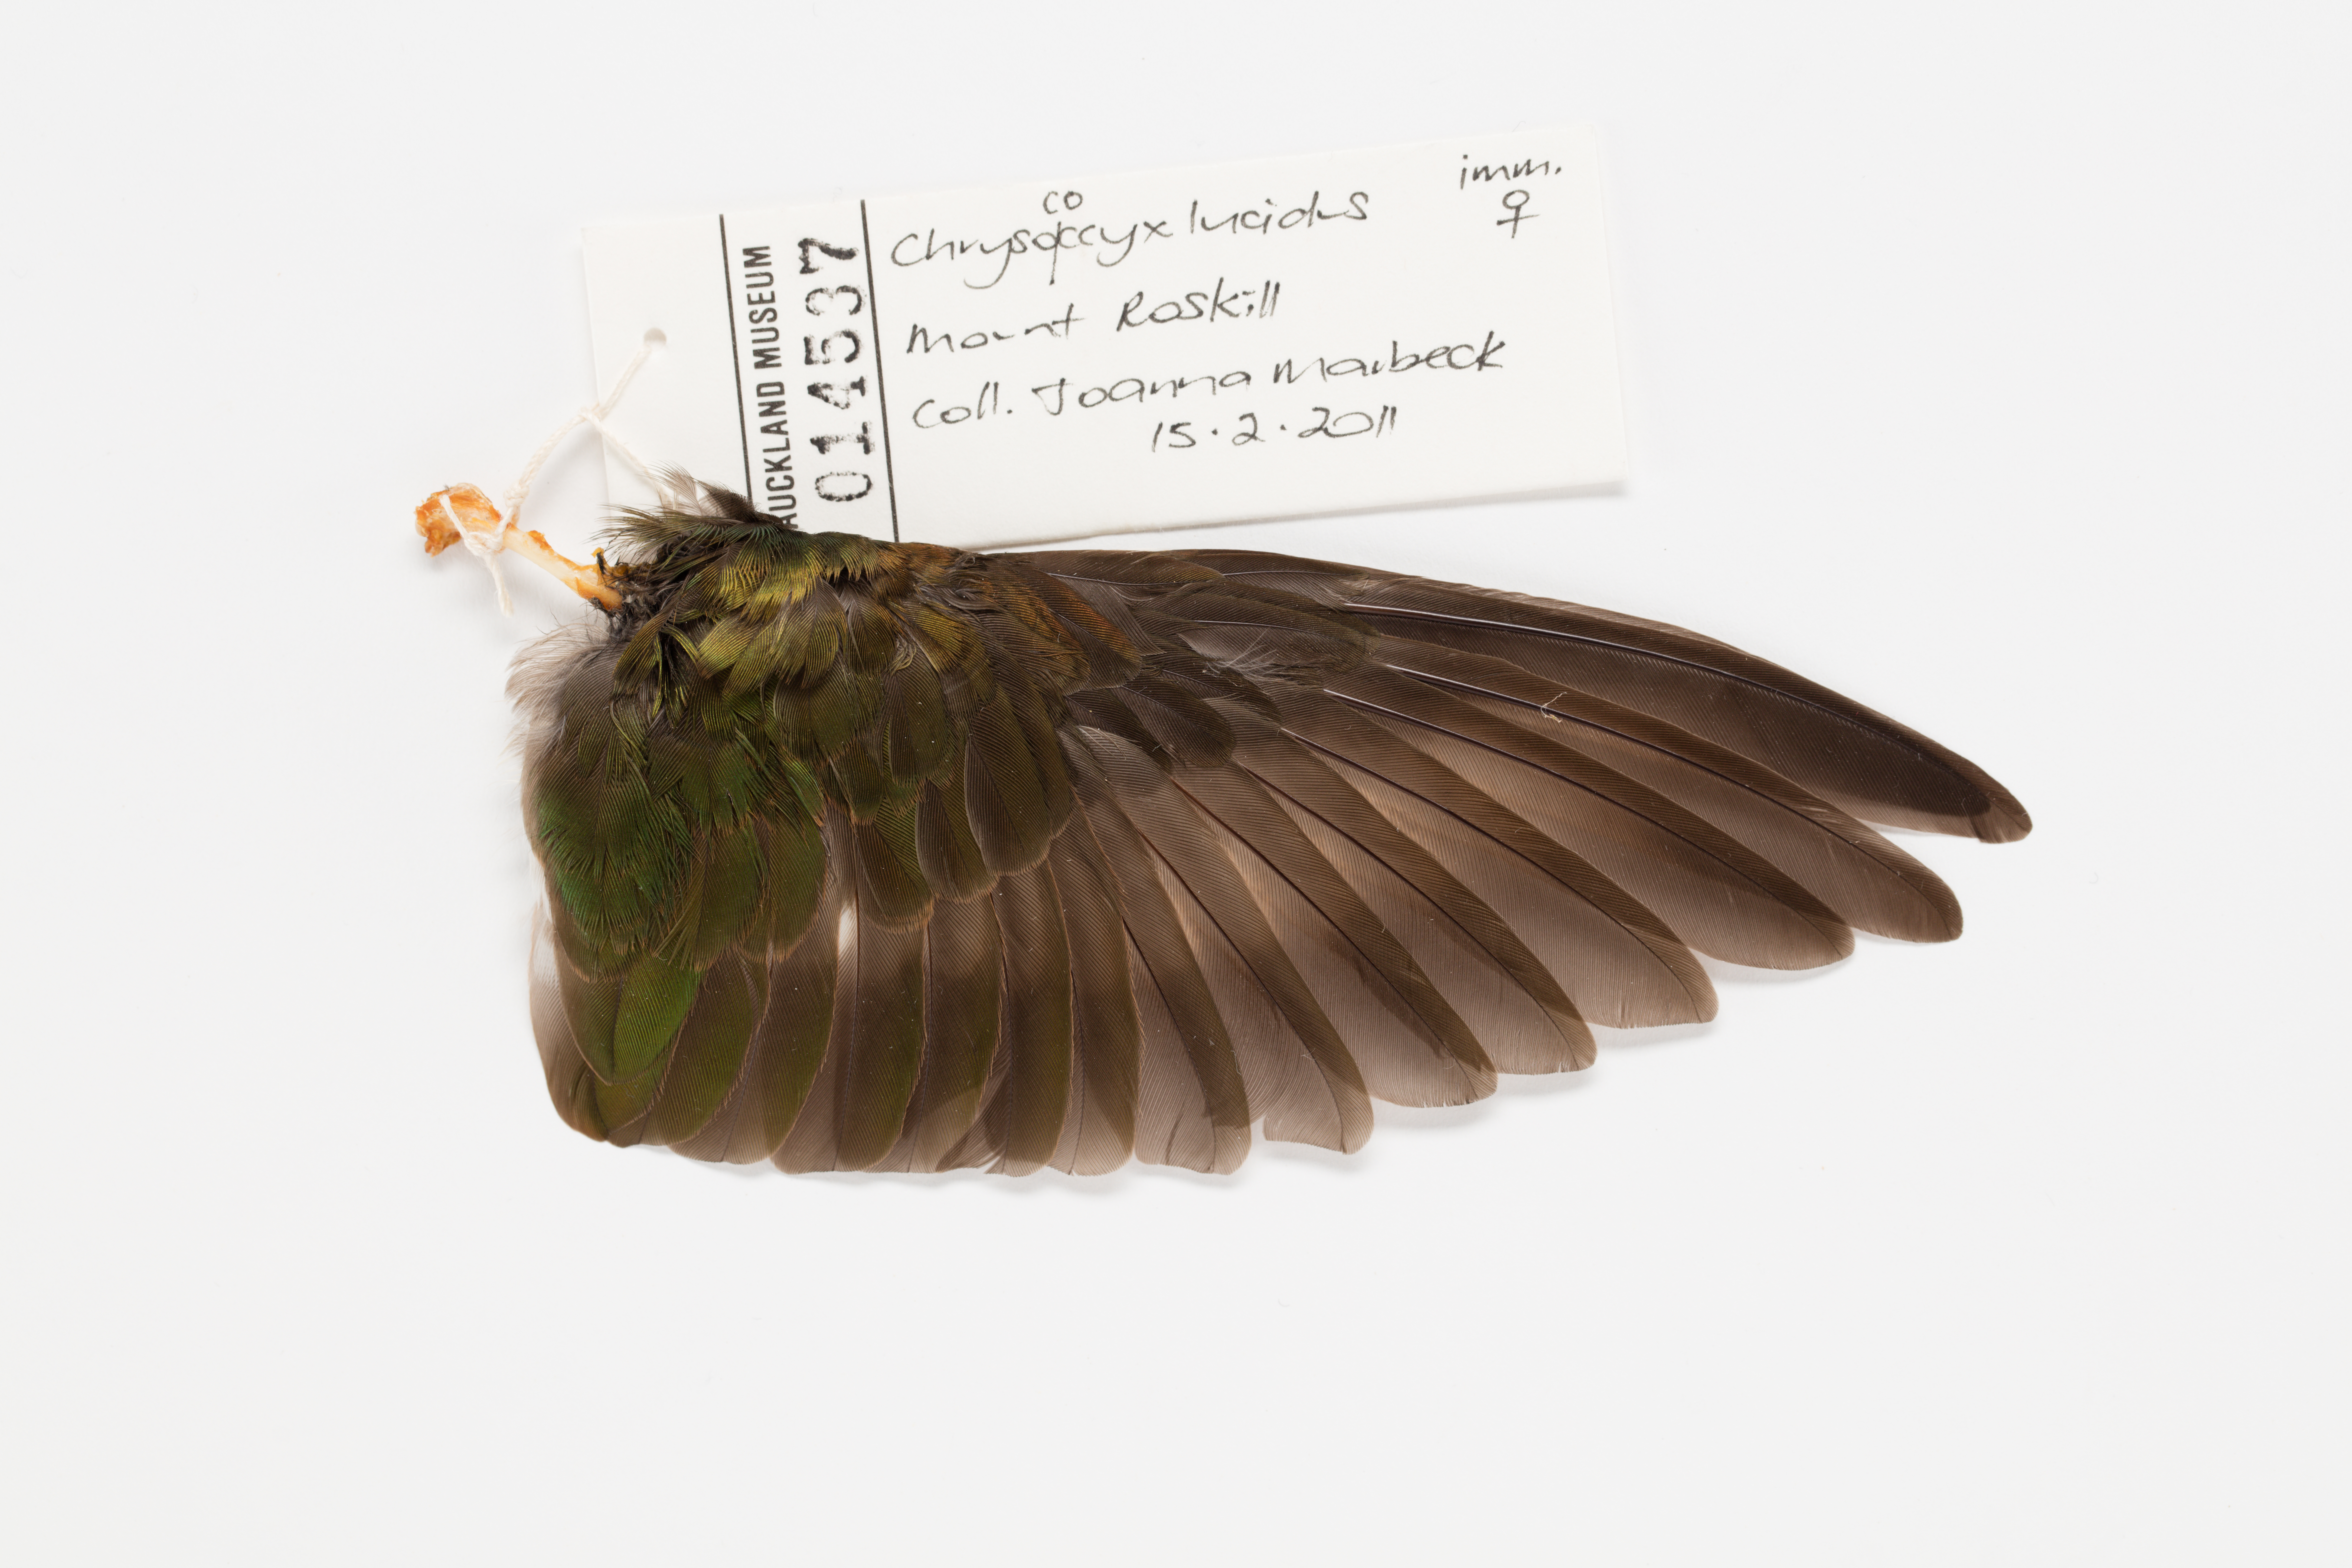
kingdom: Animalia
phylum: Chordata
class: Aves
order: Cuculiformes
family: Cuculidae
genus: Chrysococcyx
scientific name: Chrysococcyx lucidus
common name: Shining bronze cuckoo
